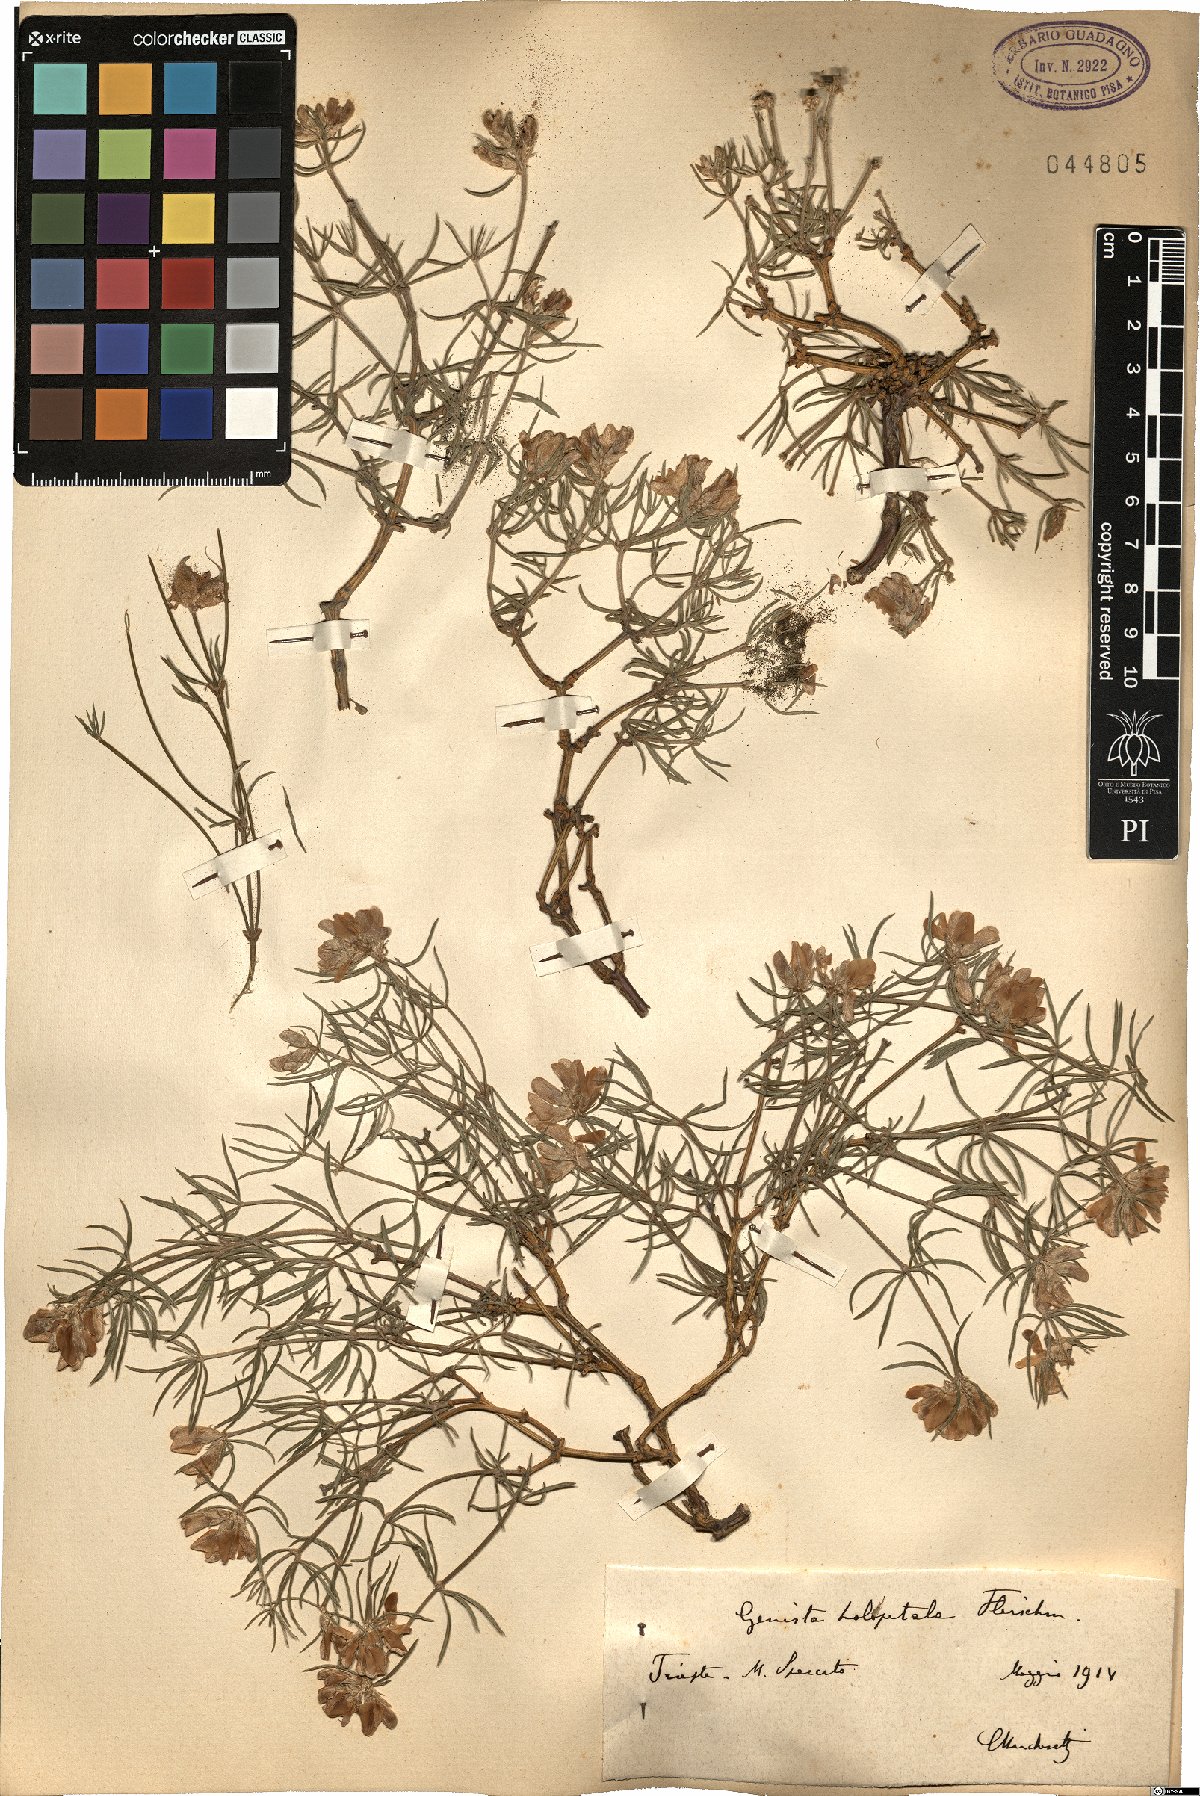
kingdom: Plantae
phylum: Tracheophyta
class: Magnoliopsida
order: Fabales
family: Fabaceae
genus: Genista
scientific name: Genista holopetala
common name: Entire-petalled gorse
